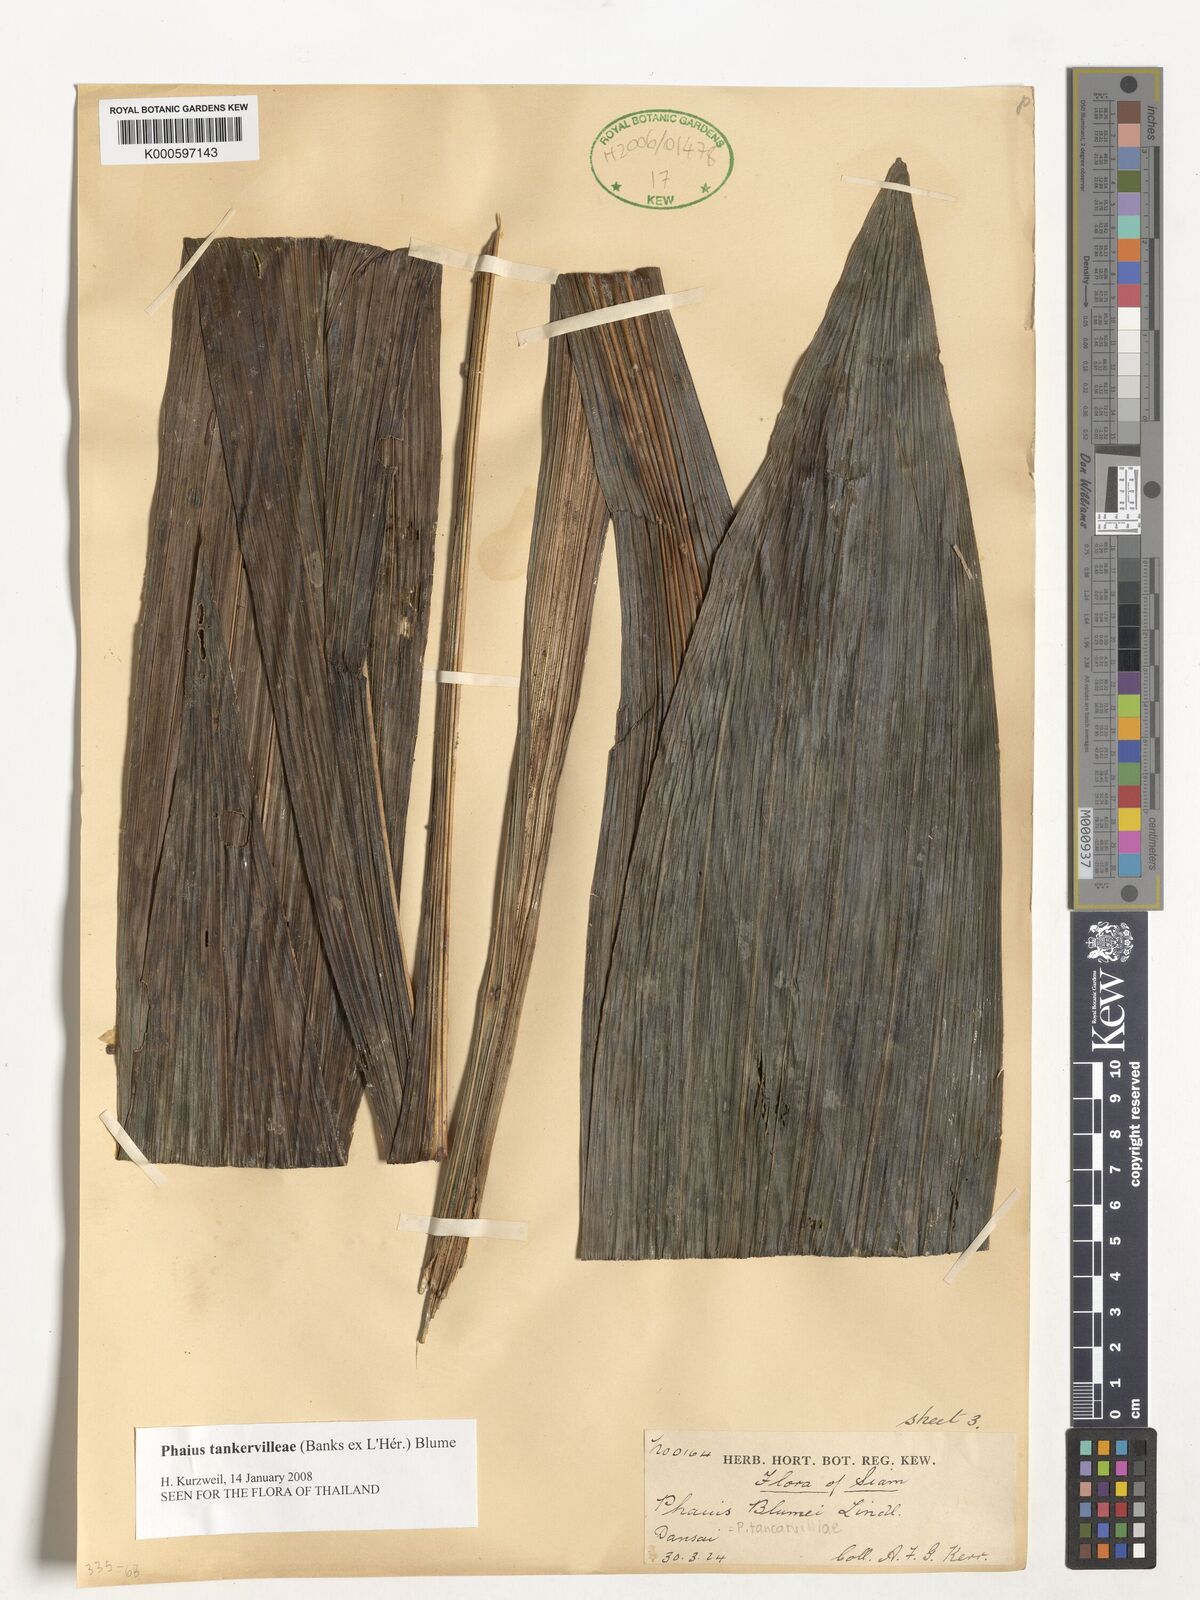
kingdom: Plantae
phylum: Tracheophyta
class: Liliopsida
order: Asparagales
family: Orchidaceae
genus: Calanthe
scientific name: Calanthe
